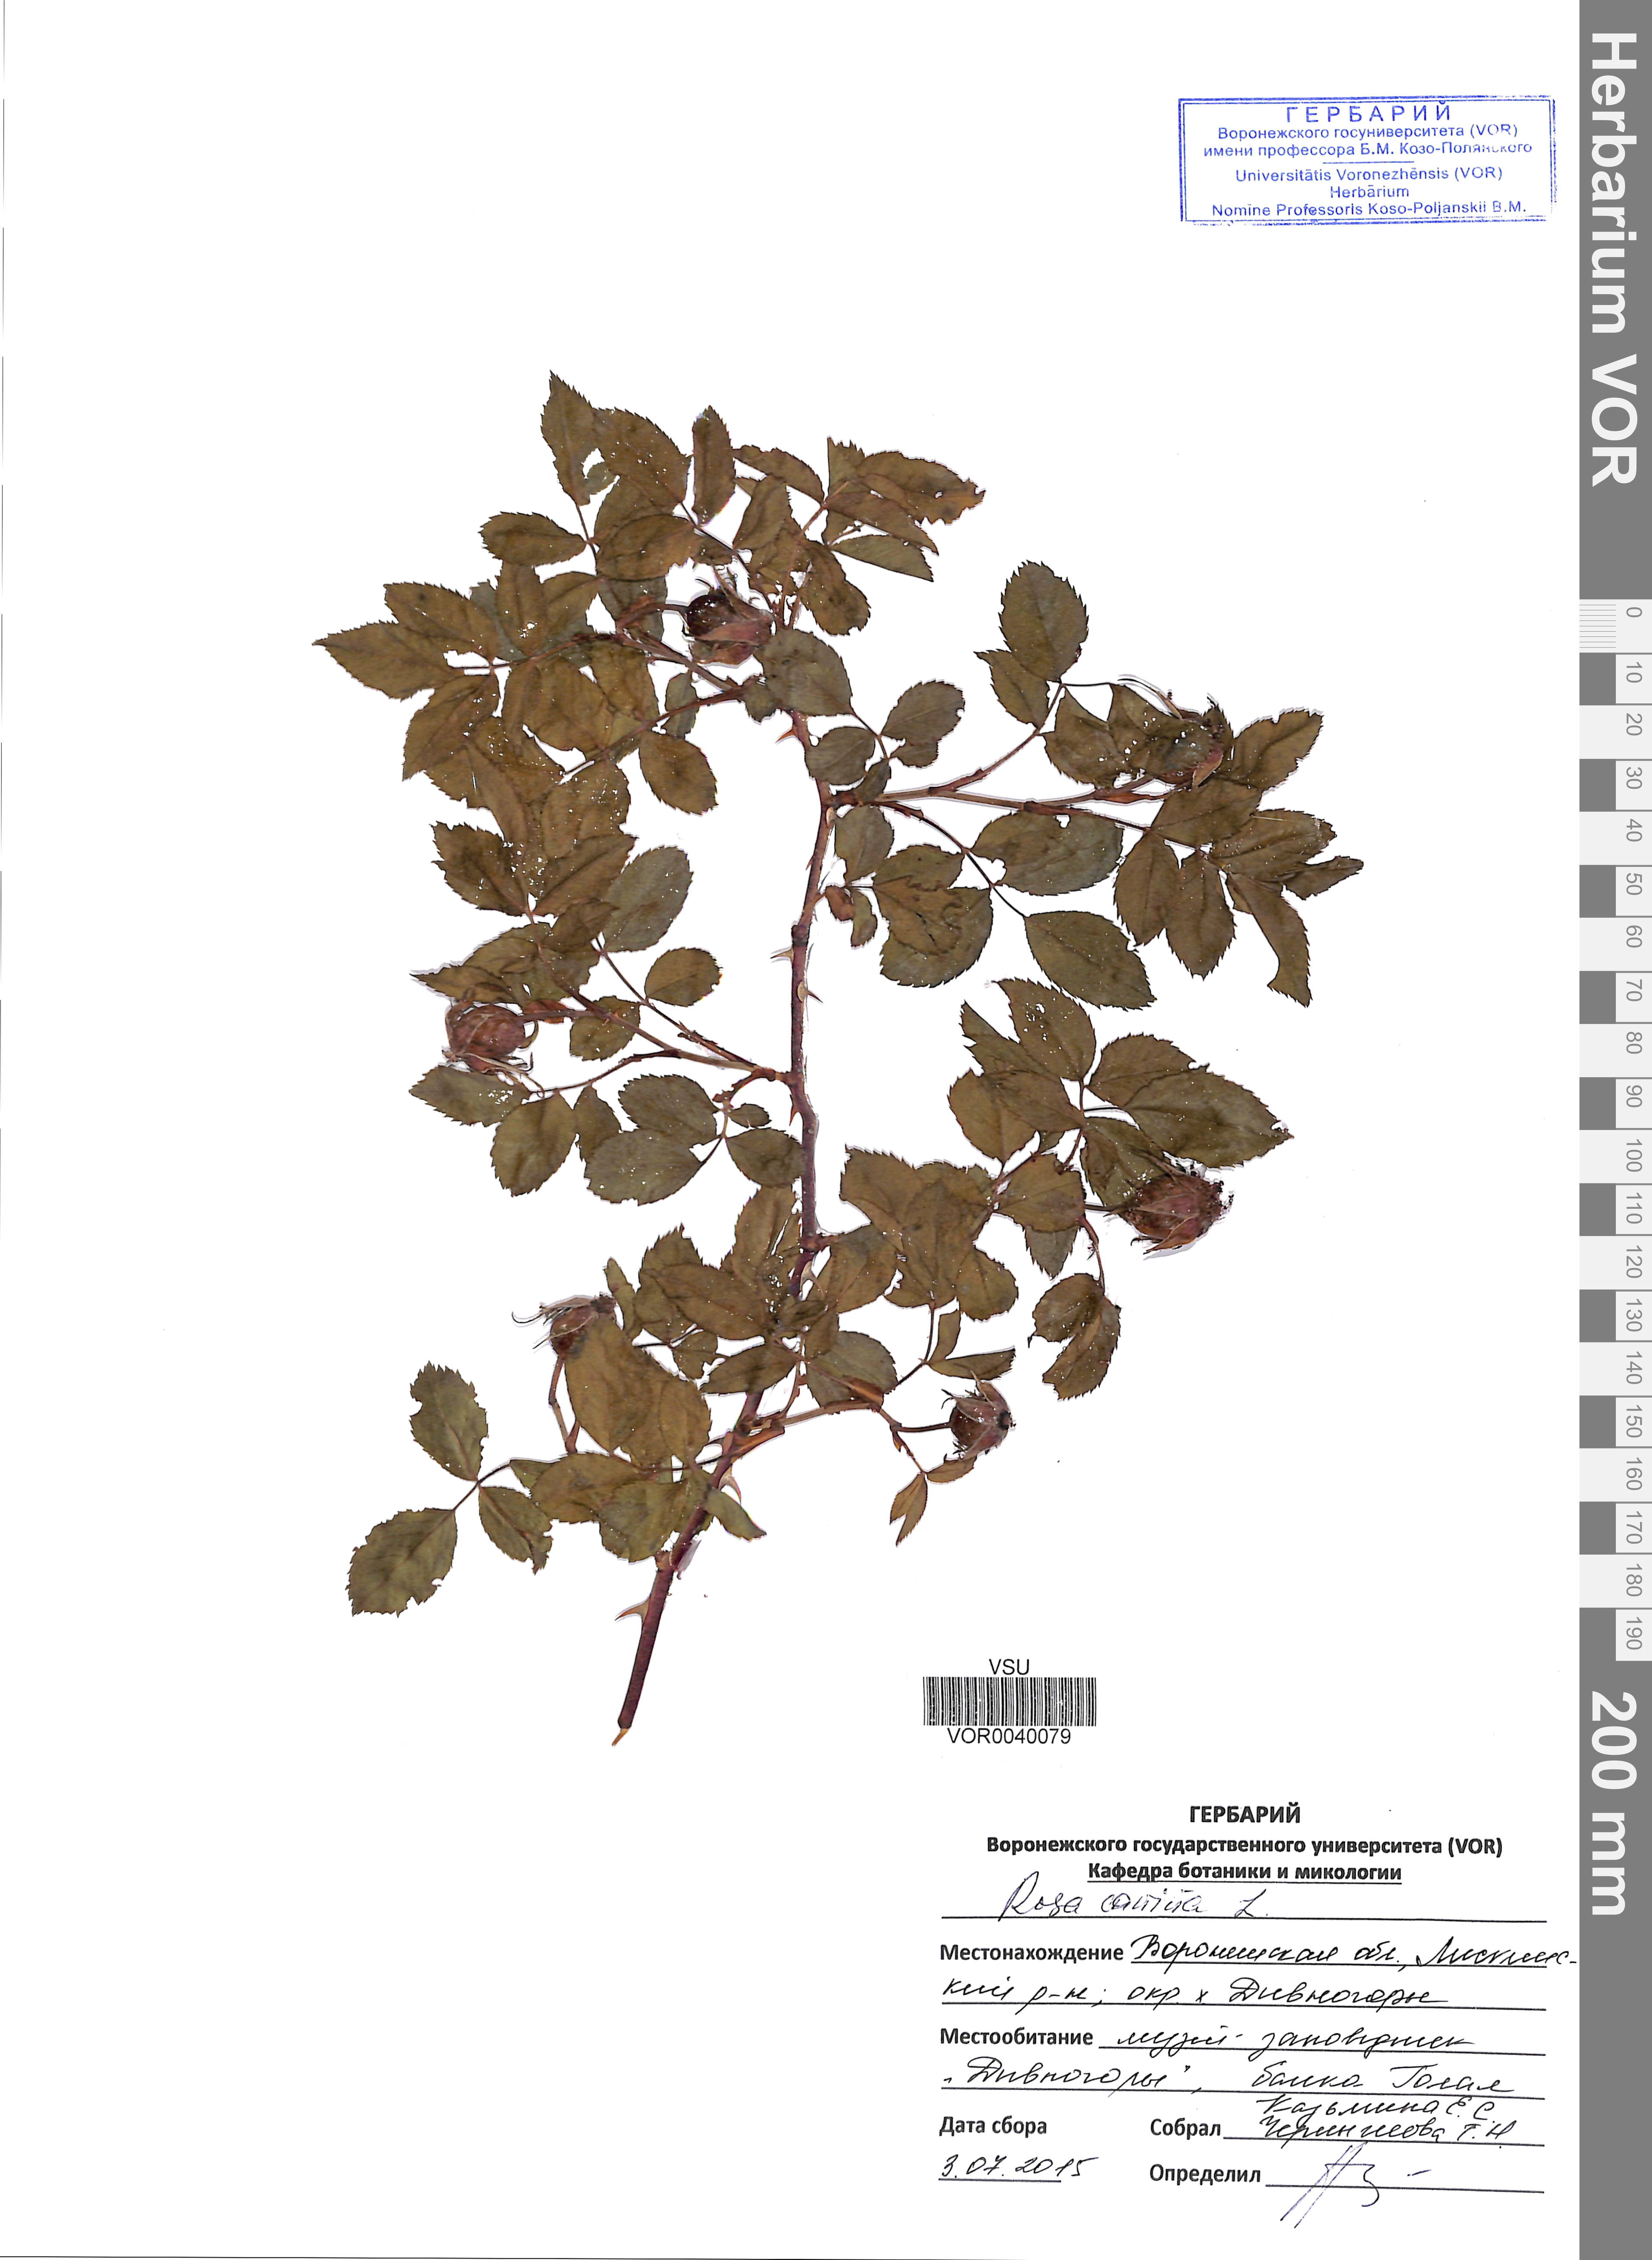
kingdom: Plantae
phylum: Tracheophyta
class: Magnoliopsida
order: Rosales
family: Rosaceae
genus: Rosa
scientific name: Rosa canina
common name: Dog rose
